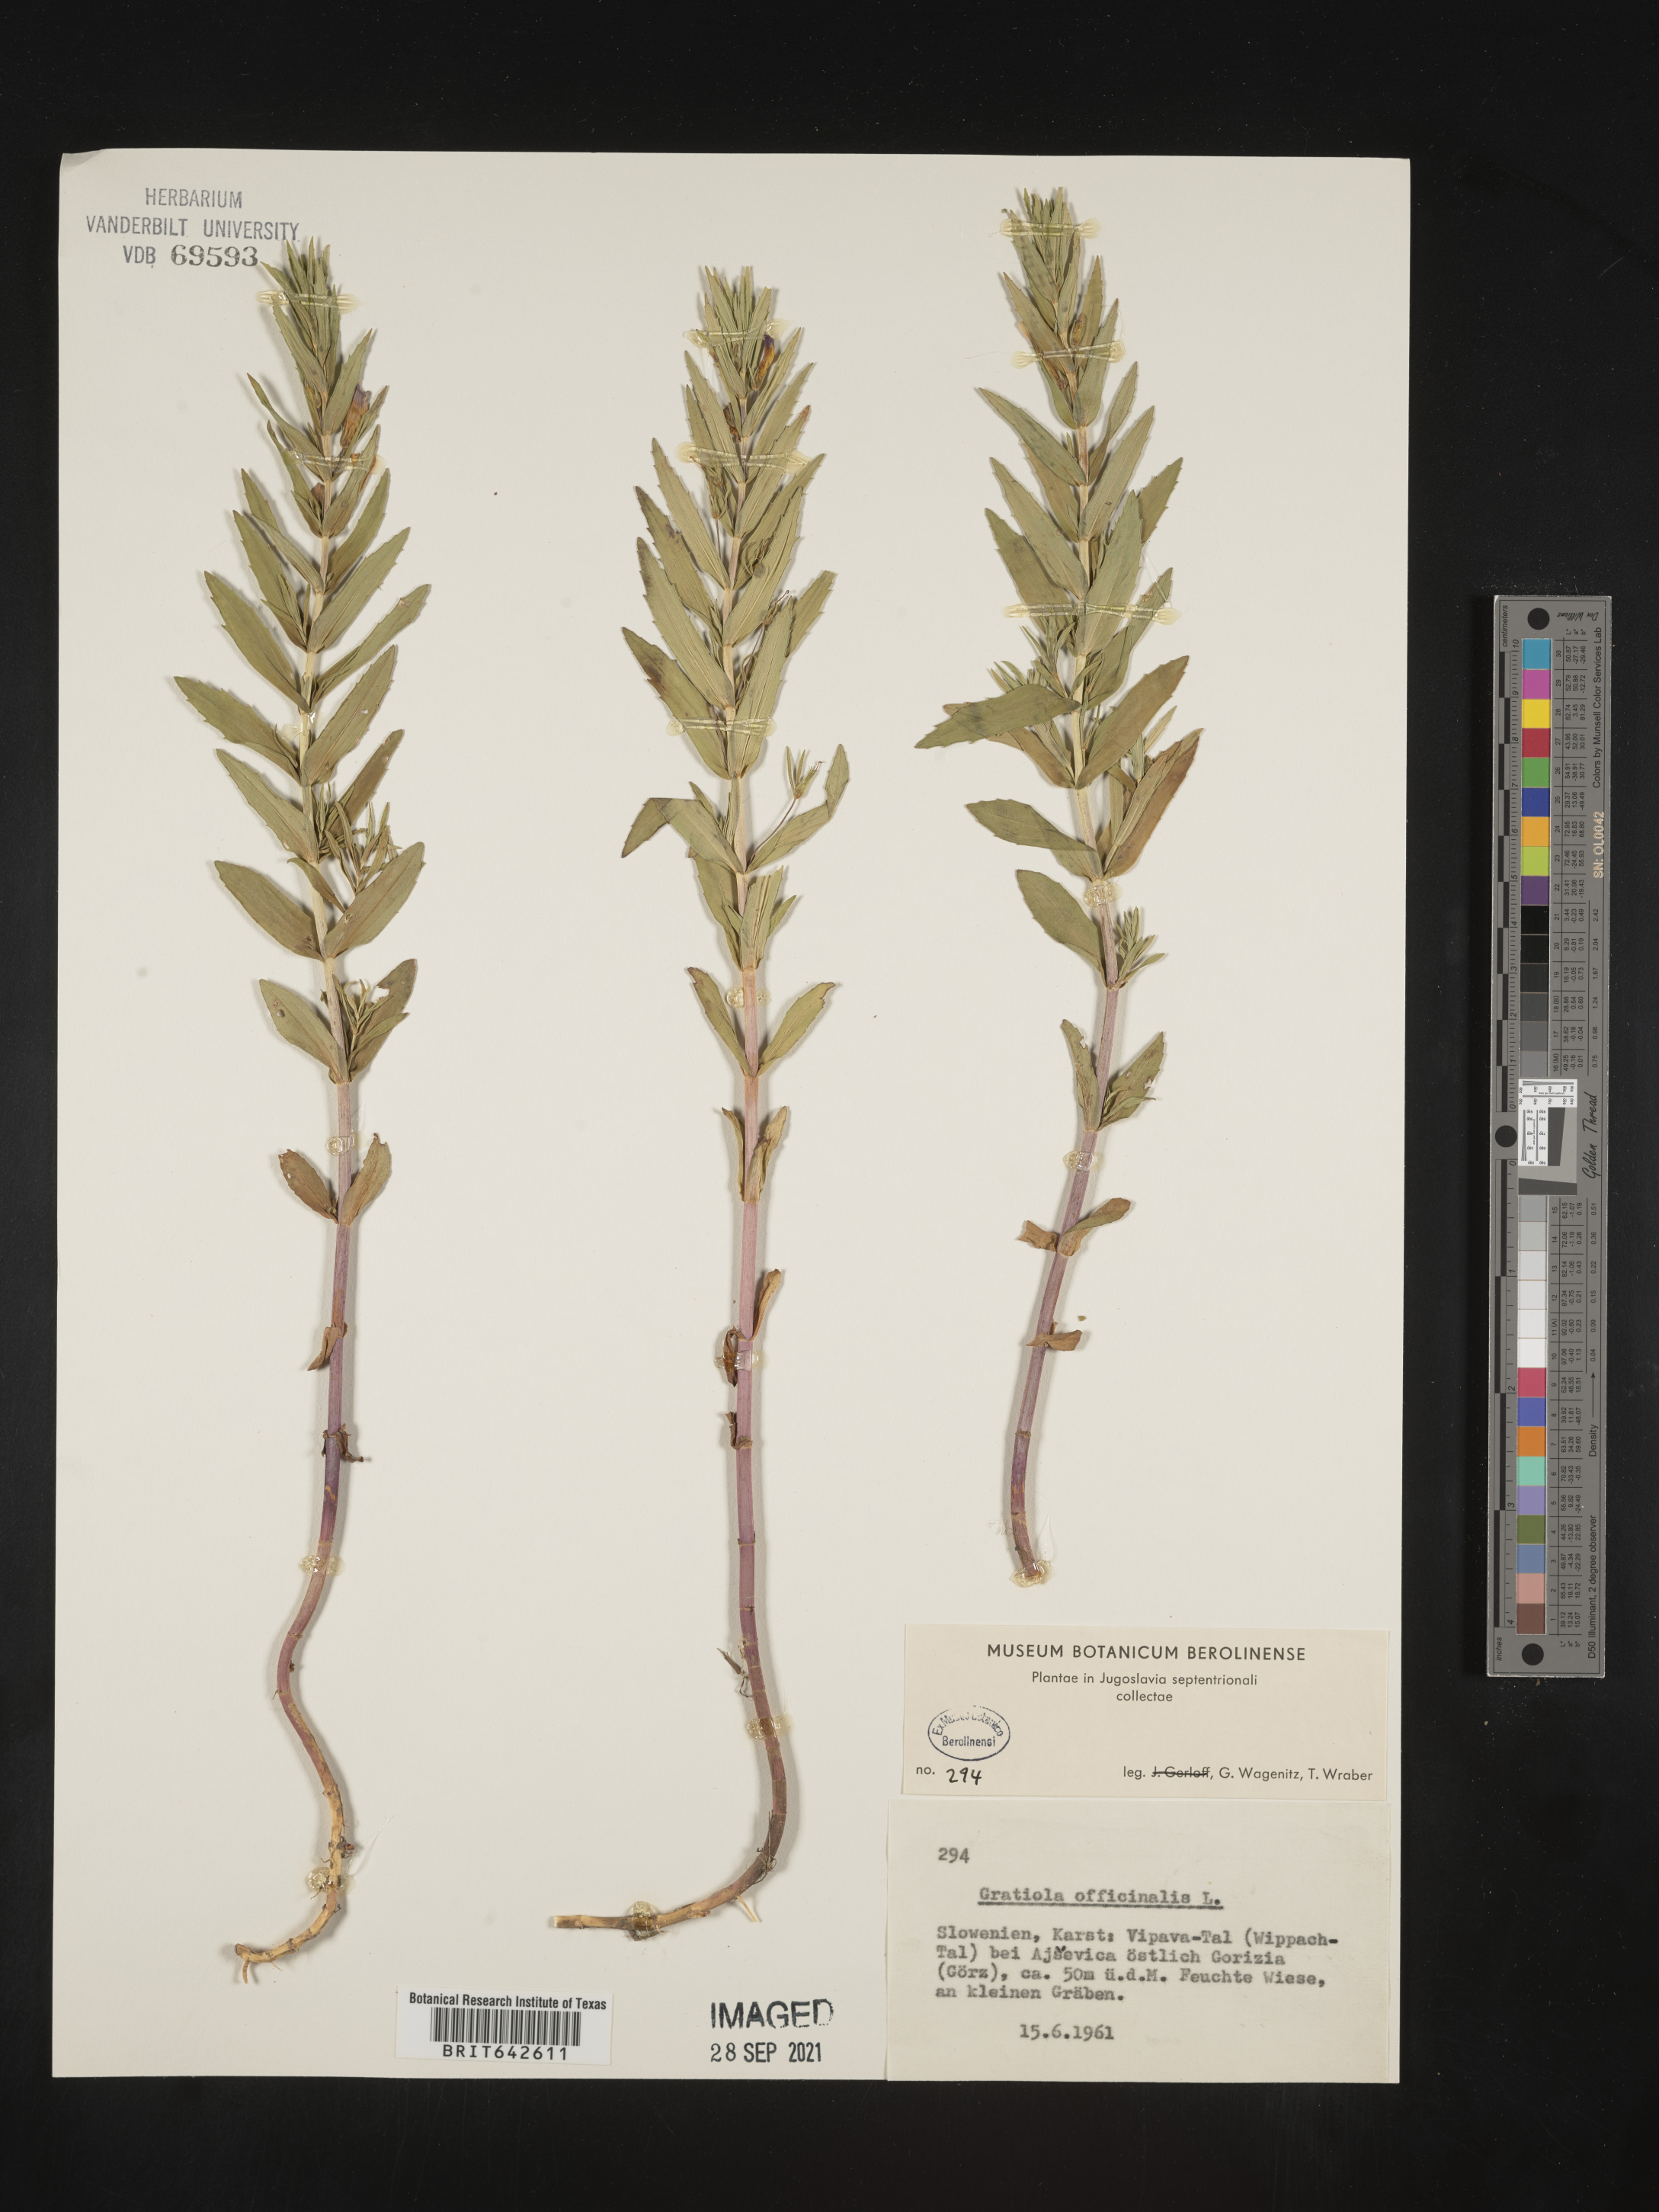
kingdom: Plantae
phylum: Tracheophyta
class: Magnoliopsida
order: Lamiales
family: Plantaginaceae
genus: Gratiola
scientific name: Gratiola
